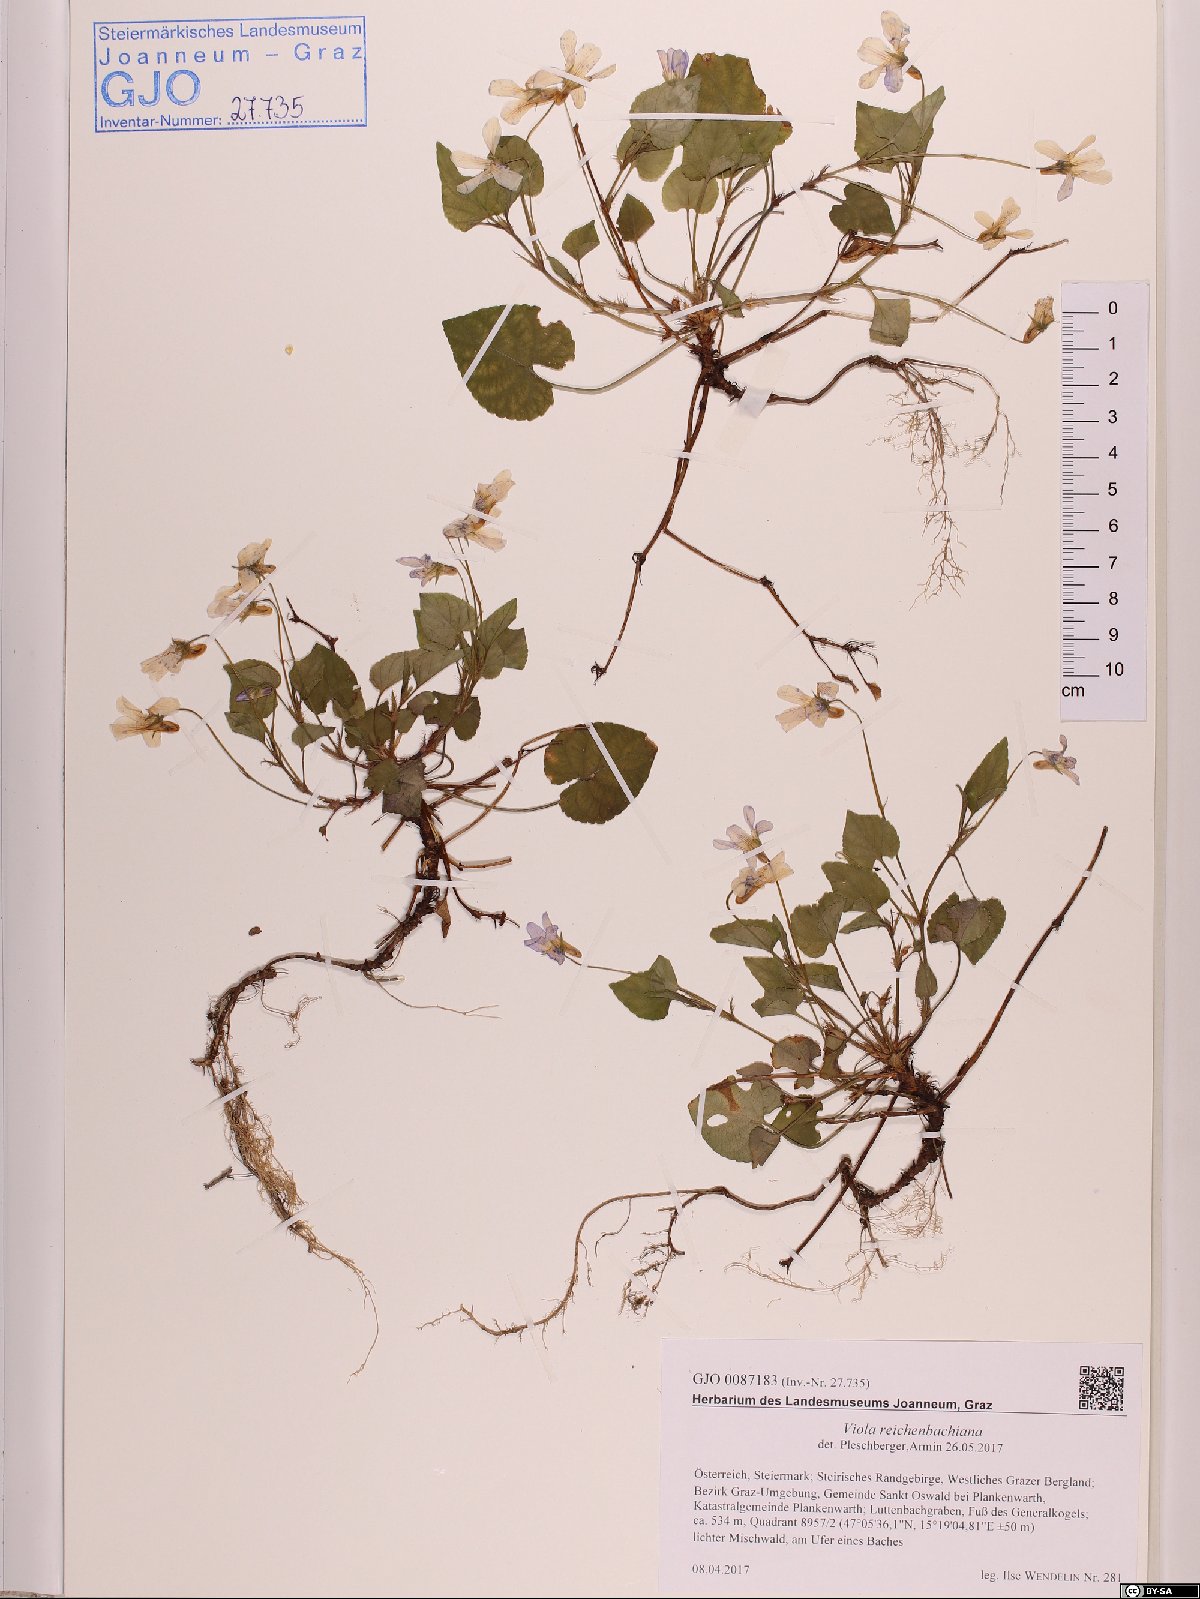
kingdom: Plantae
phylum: Tracheophyta
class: Magnoliopsida
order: Malpighiales
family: Violaceae
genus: Viola
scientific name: Viola reichenbachiana
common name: Early dog-violet
